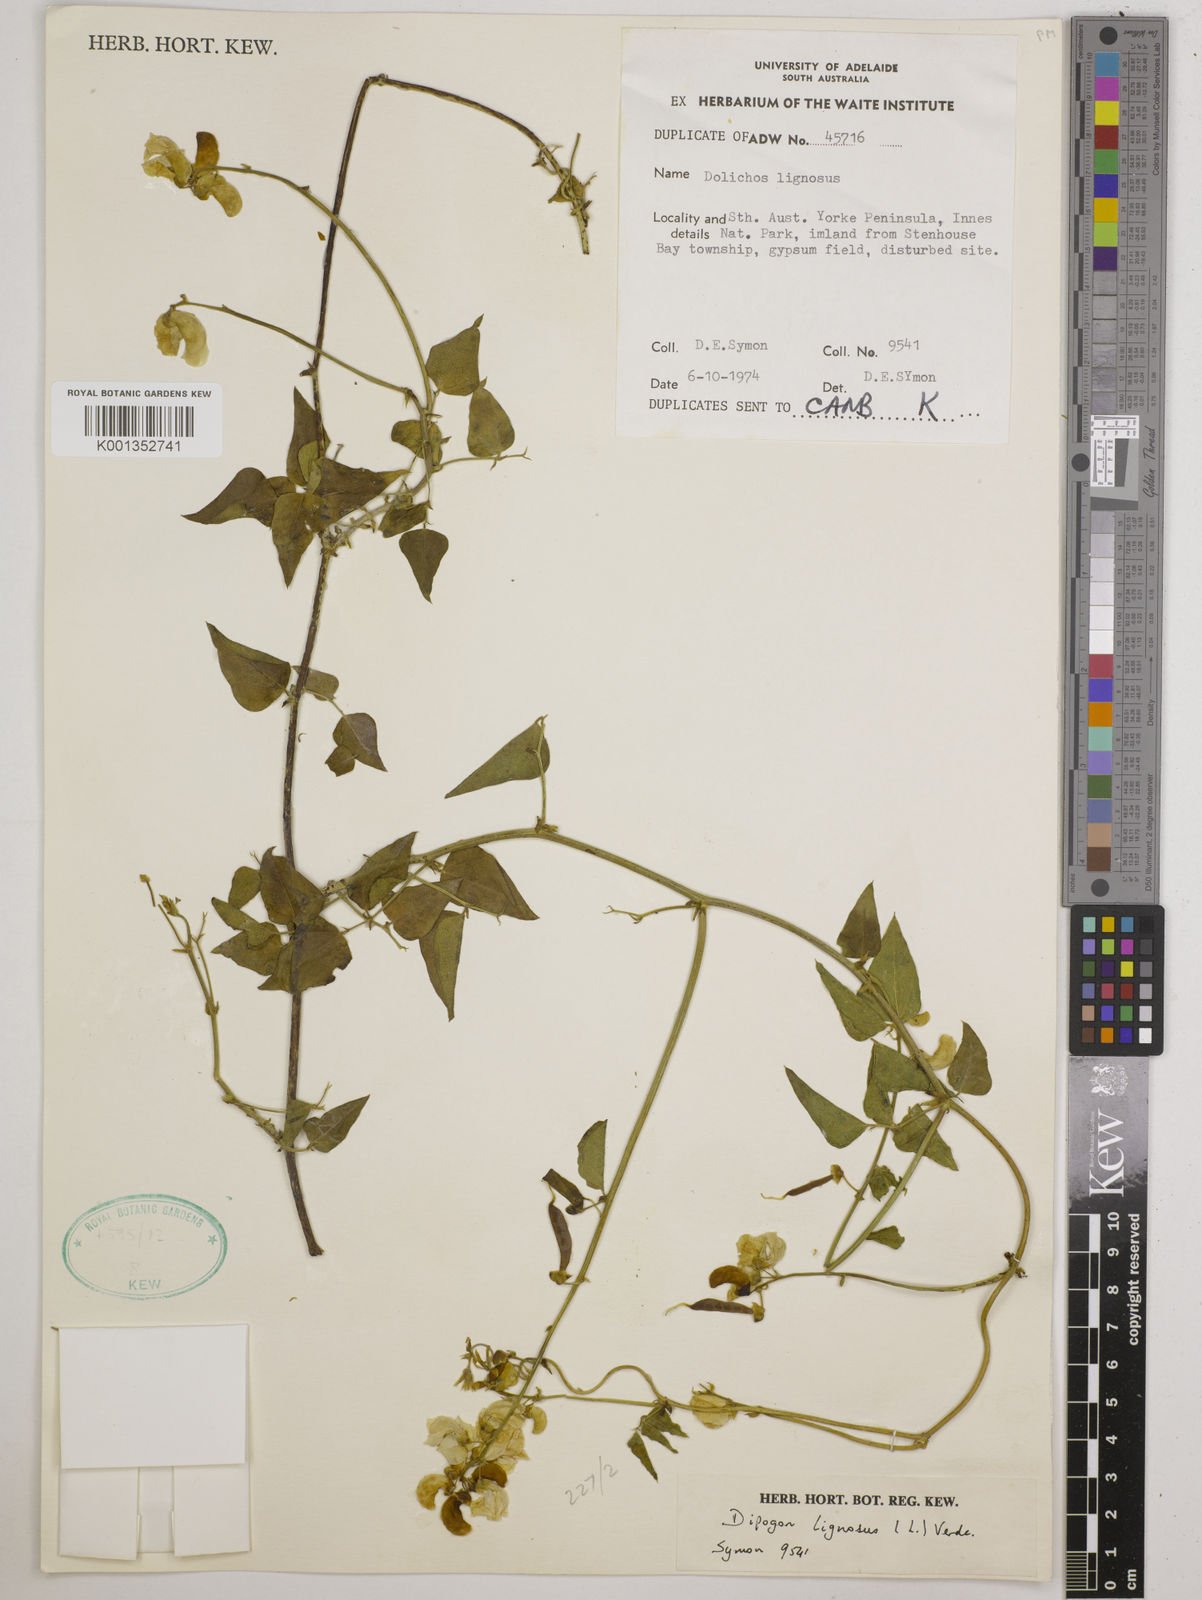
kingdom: Plantae
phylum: Tracheophyta
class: Magnoliopsida
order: Fabales
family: Fabaceae
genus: Dipogon
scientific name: Dipogon lignosus
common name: Okie bean
